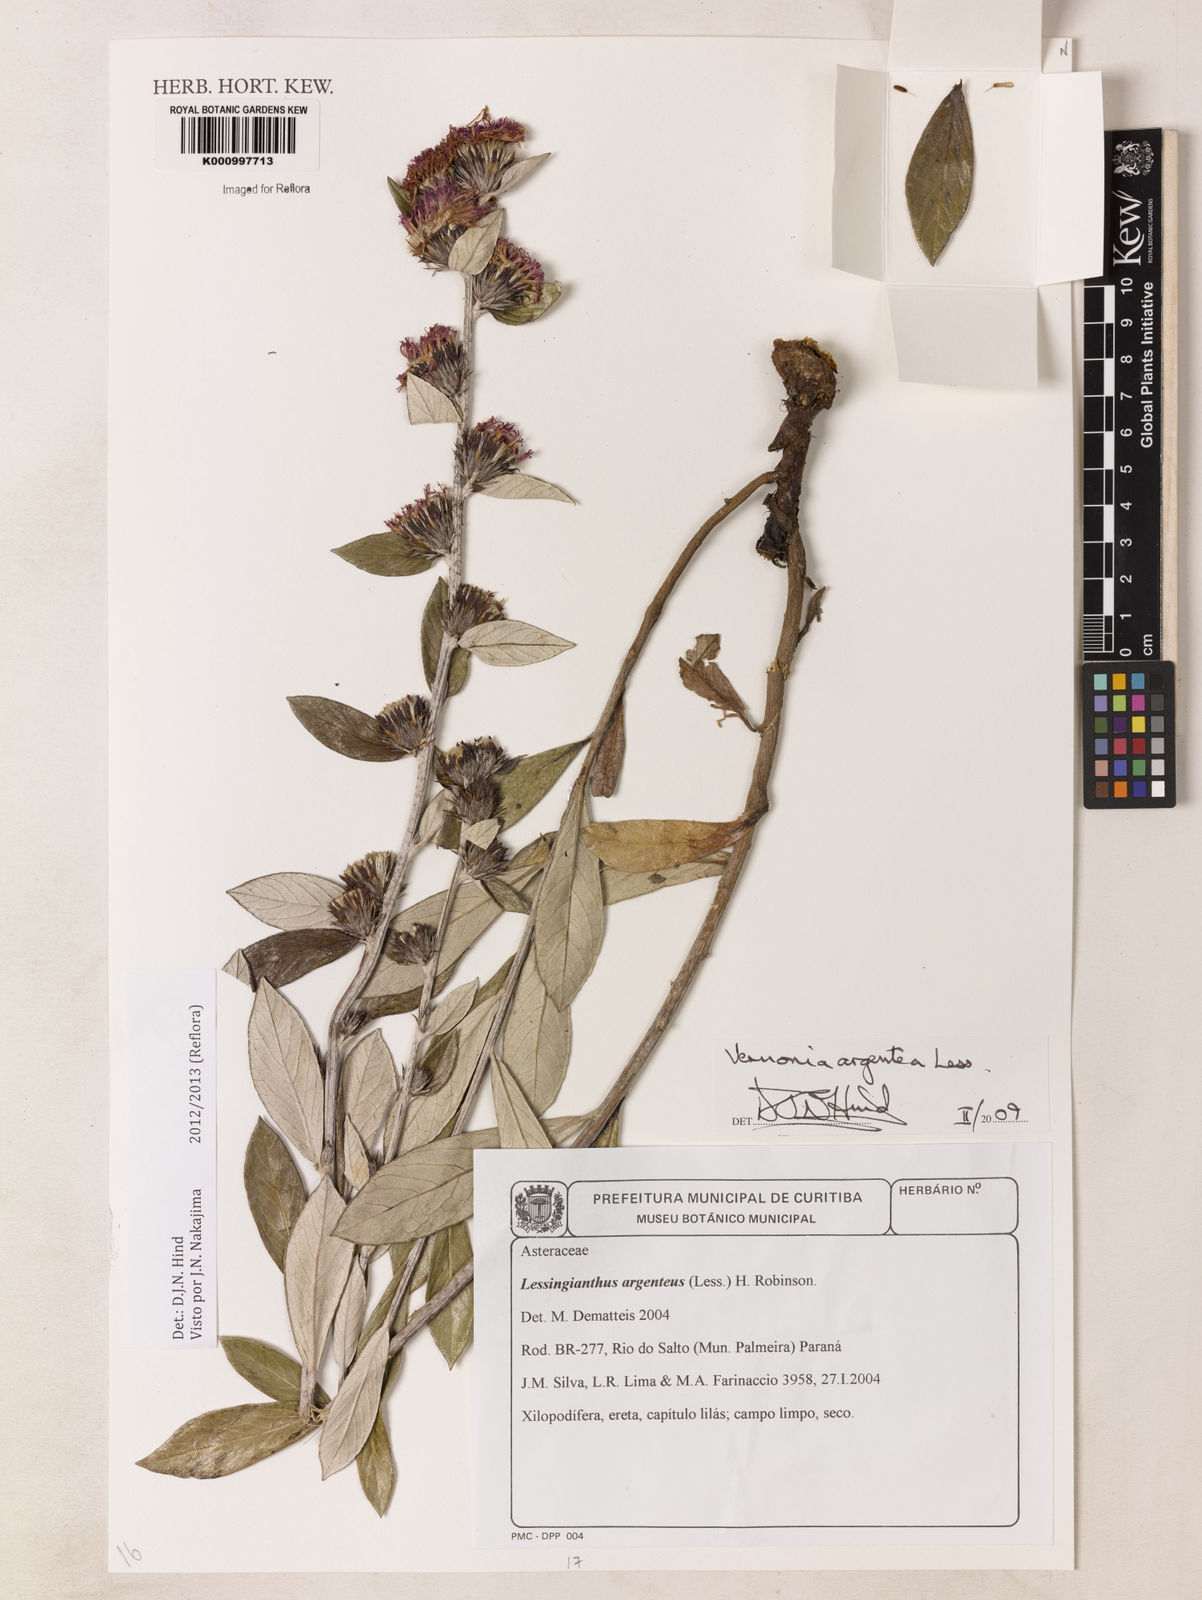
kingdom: Plantae
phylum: Tracheophyta
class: Magnoliopsida
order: Asterales
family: Asteraceae
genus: Lessingianthus
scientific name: Lessingianthus argenteus
